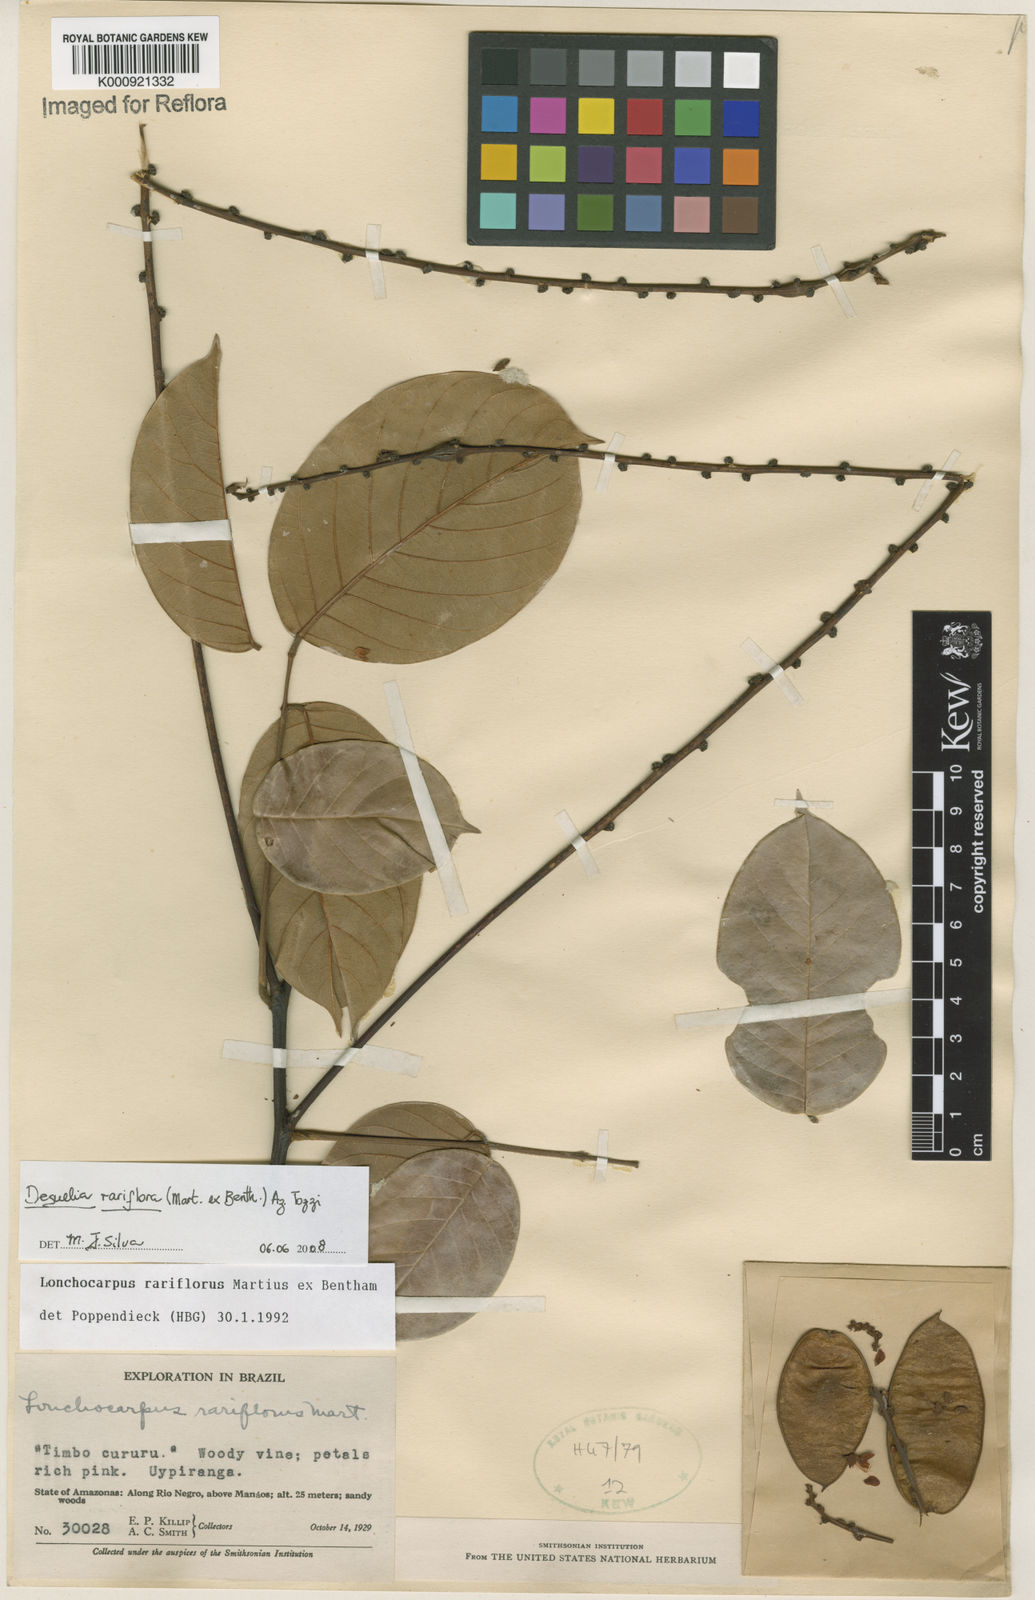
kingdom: Plantae
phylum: Tracheophyta
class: Magnoliopsida
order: Fabales
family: Fabaceae
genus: Deguelia
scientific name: Deguelia
